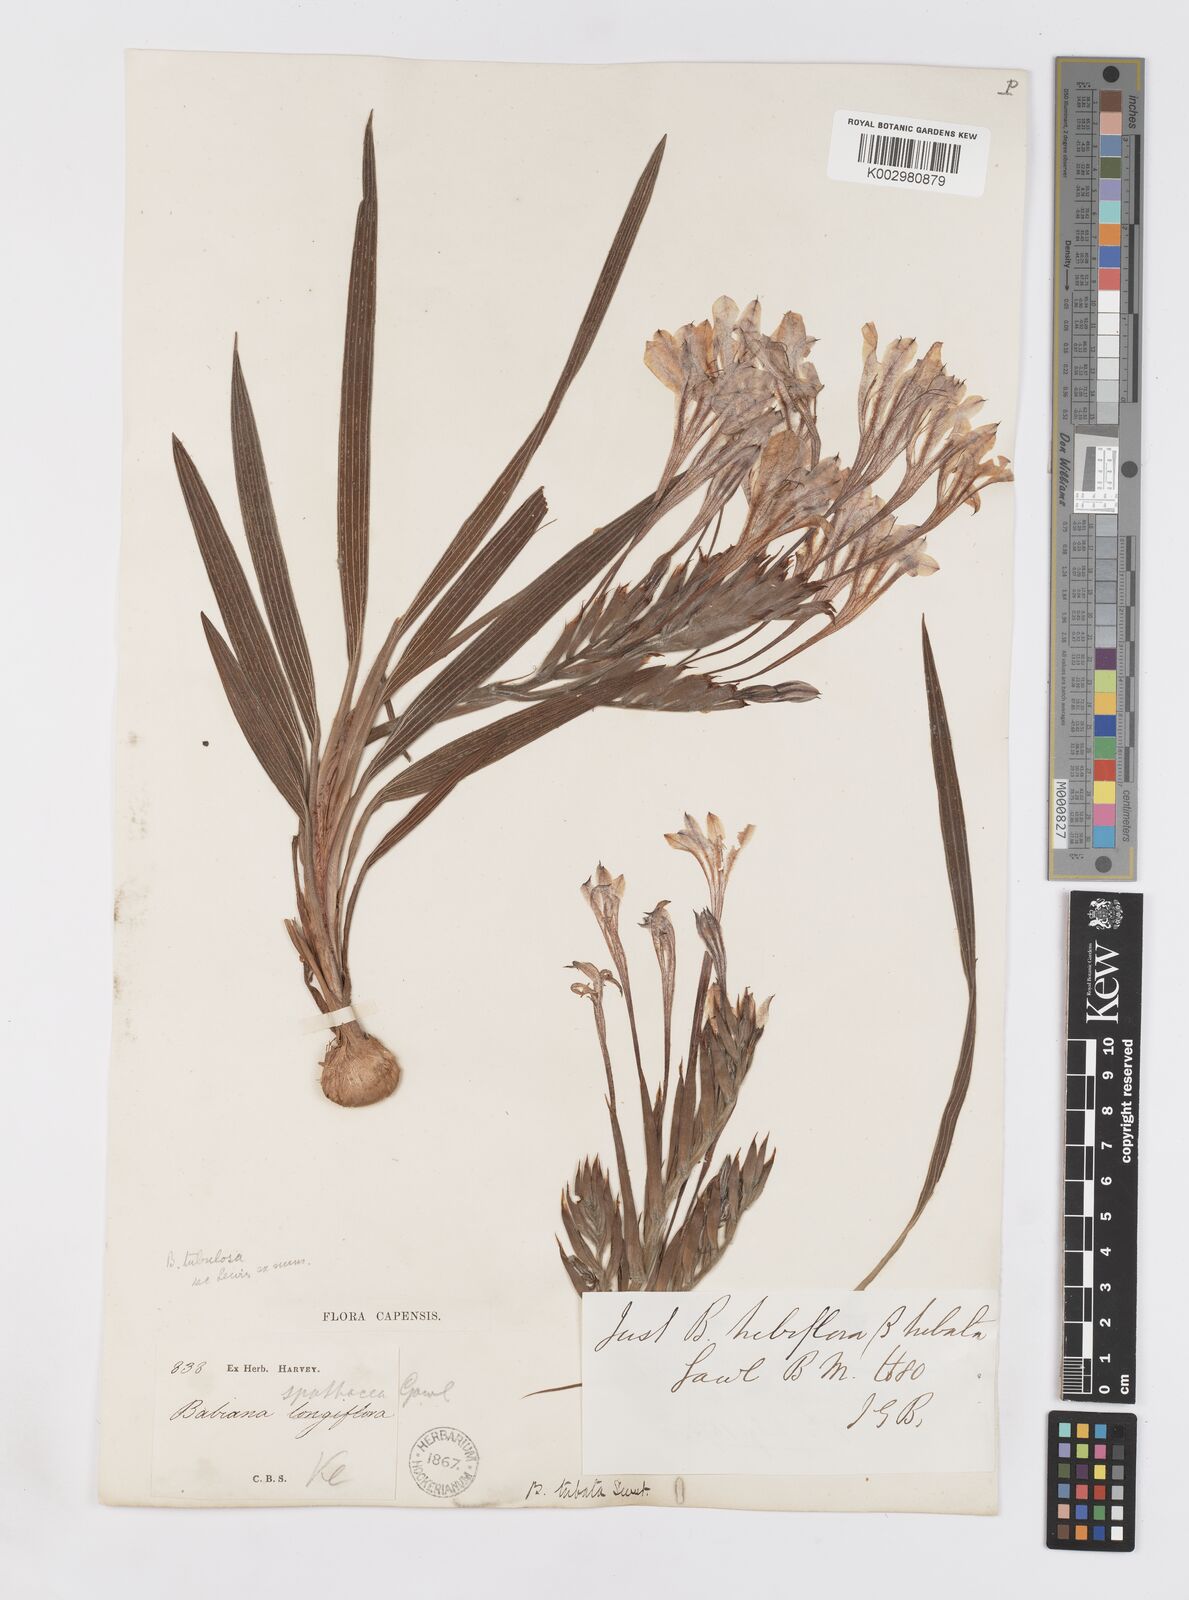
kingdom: Plantae
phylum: Tracheophyta
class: Liliopsida
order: Asparagales
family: Iridaceae
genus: Babiana
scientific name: Babiana tubulosa
